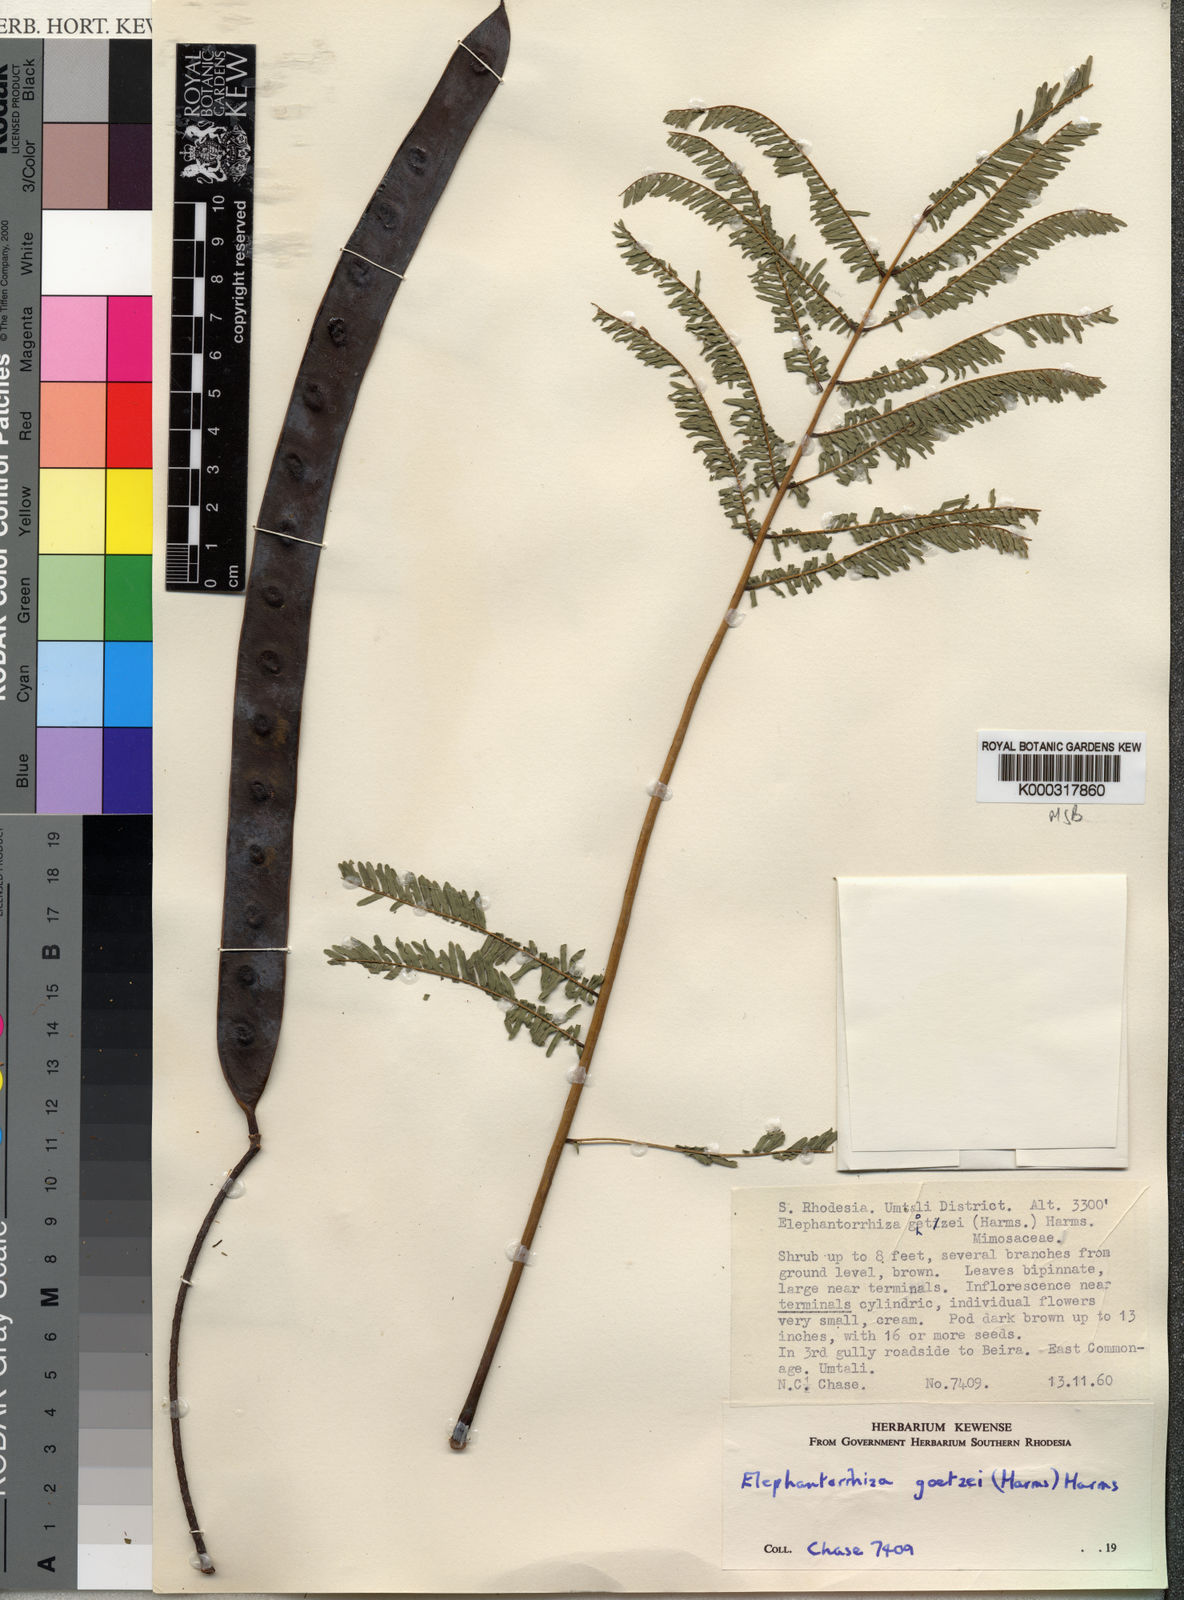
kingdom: Plantae
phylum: Tracheophyta
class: Magnoliopsida
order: Fabales
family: Fabaceae
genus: Elephantorrhiza
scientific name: Elephantorrhiza goetzei
